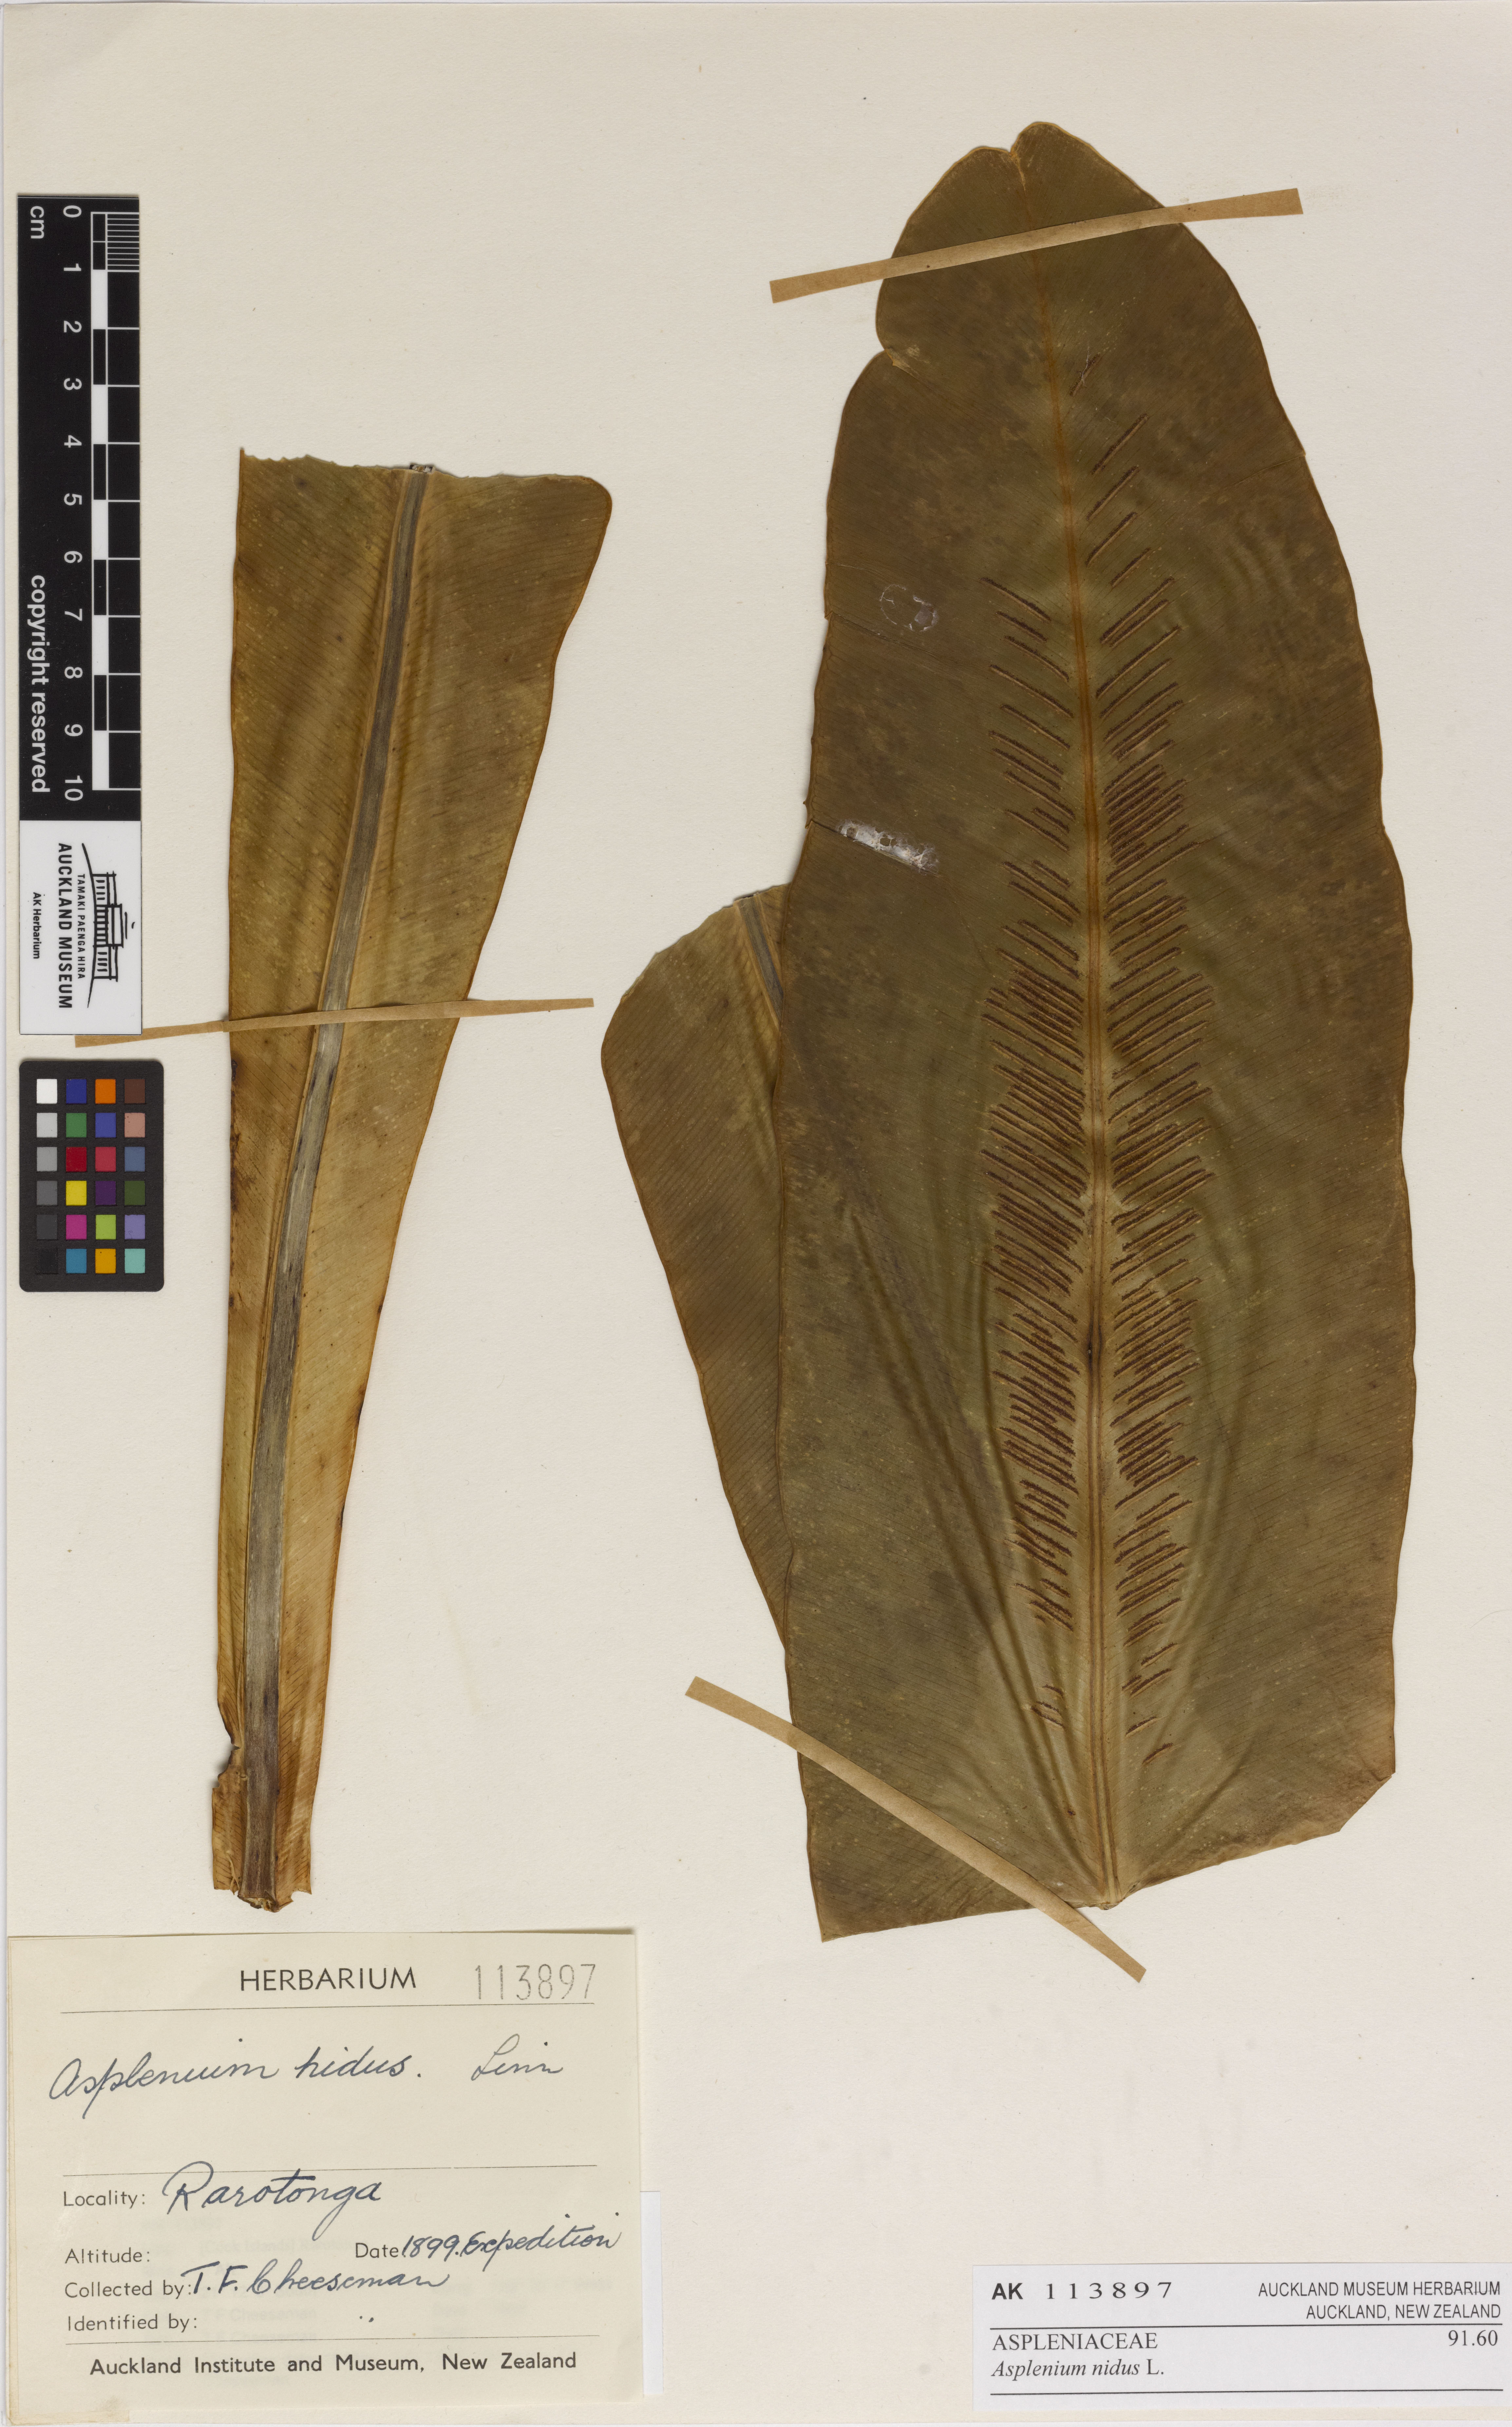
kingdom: Plantae
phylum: Tracheophyta
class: Polypodiopsida
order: Polypodiales
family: Aspleniaceae
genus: Asplenium
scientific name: Asplenium nidus
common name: Bird's-nest fern
